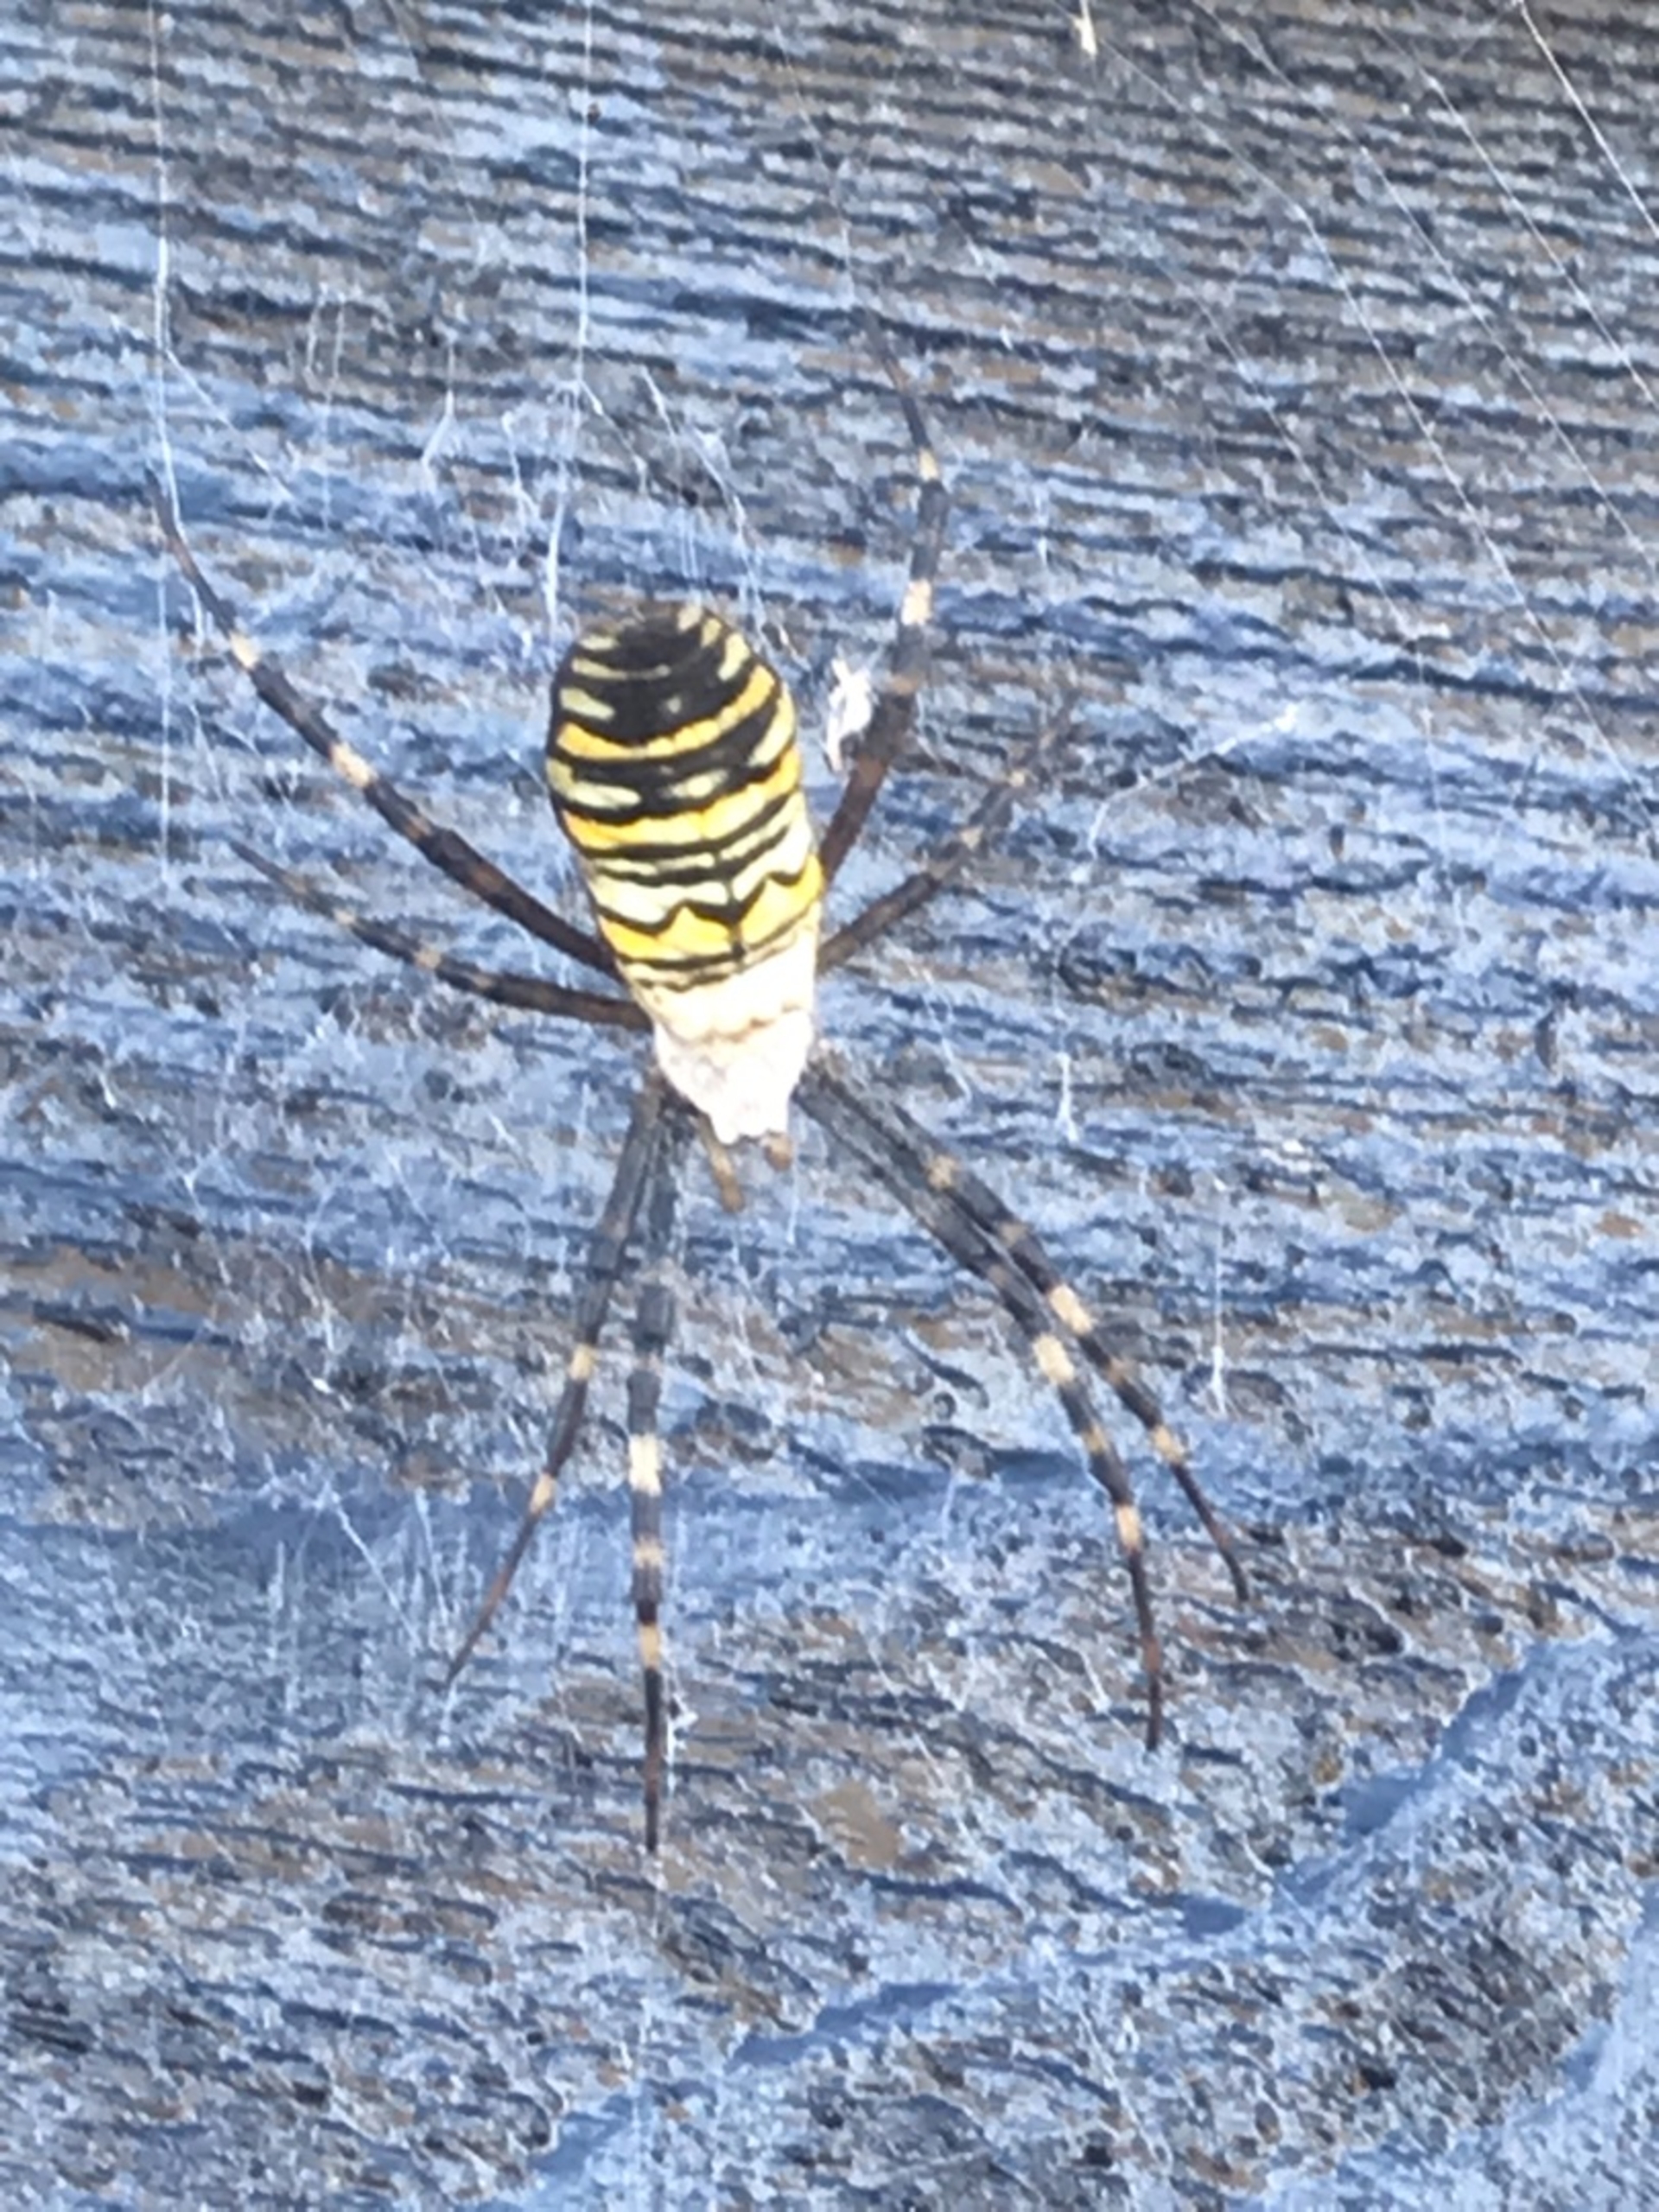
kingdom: Animalia
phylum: Arthropoda
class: Arachnida
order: Araneae
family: Araneidae
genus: Argiope
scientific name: Argiope bruennichi
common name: Hvepseedderkop
